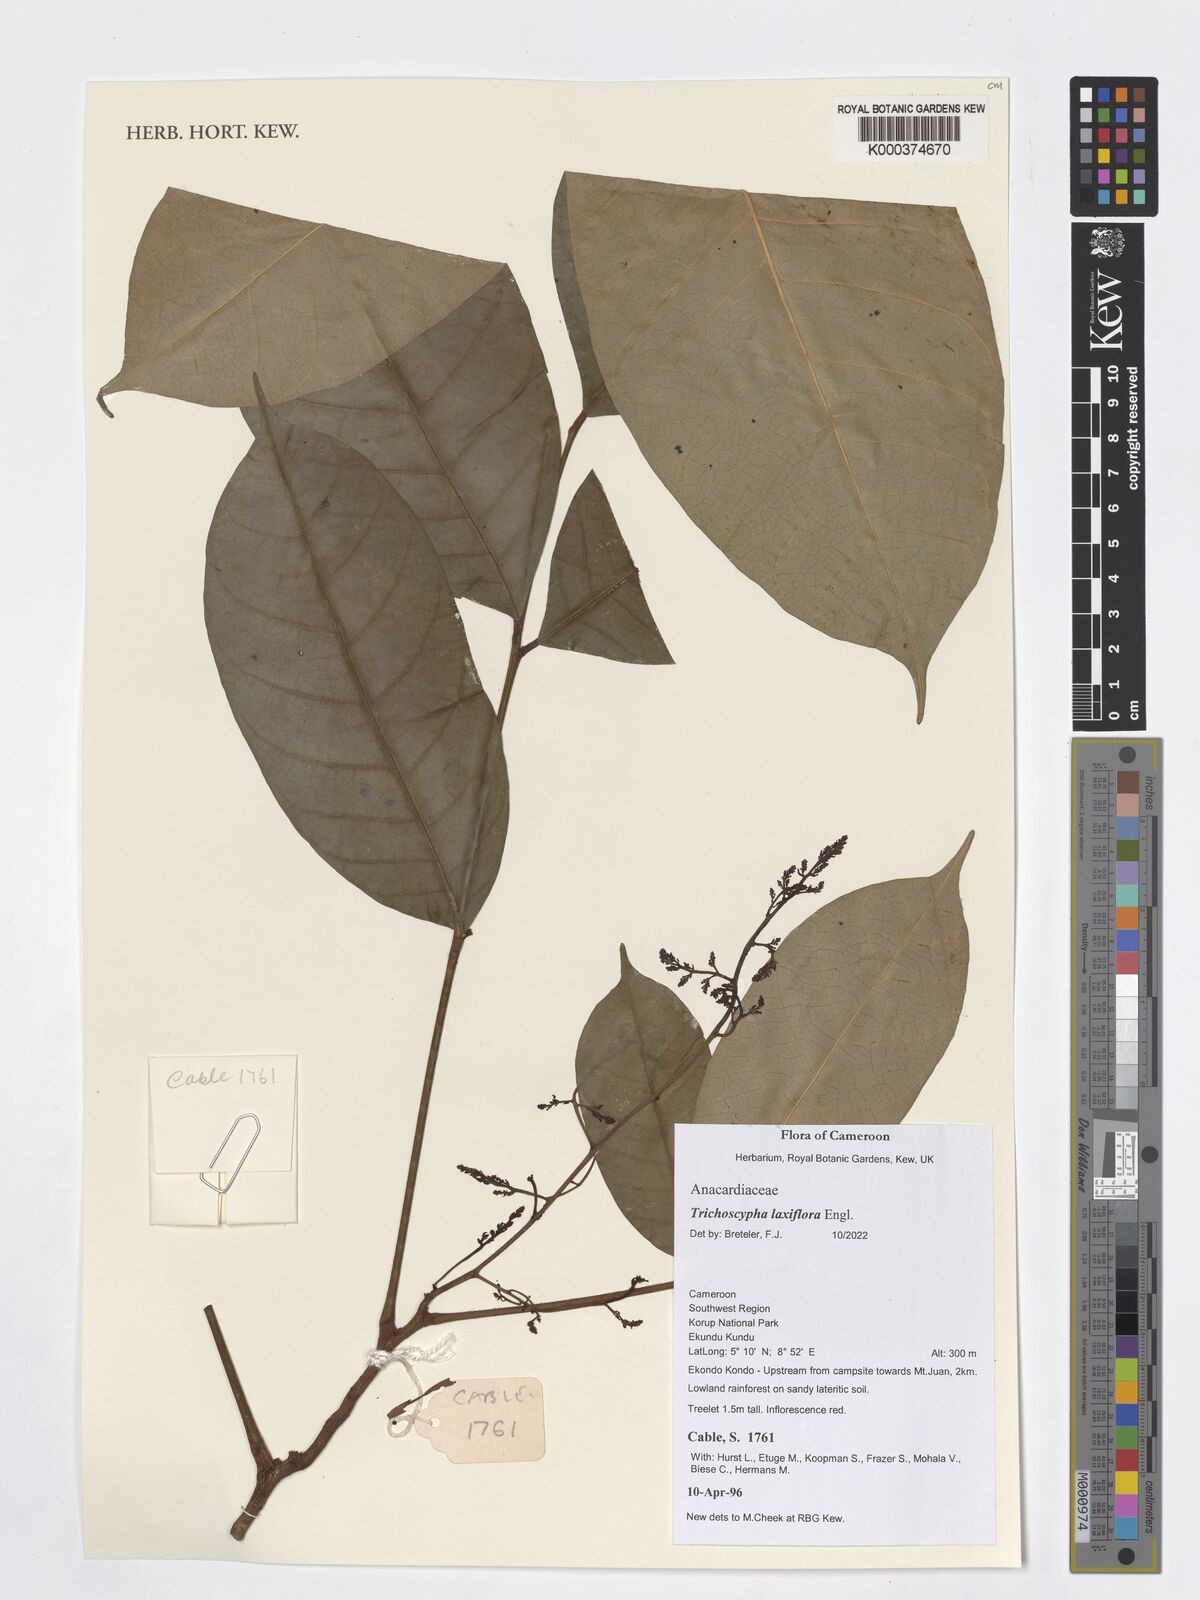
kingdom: Plantae
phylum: Tracheophyta
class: Magnoliopsida
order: Sapindales
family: Anacardiaceae
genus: Trichoscypha
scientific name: Trichoscypha laxiflora
